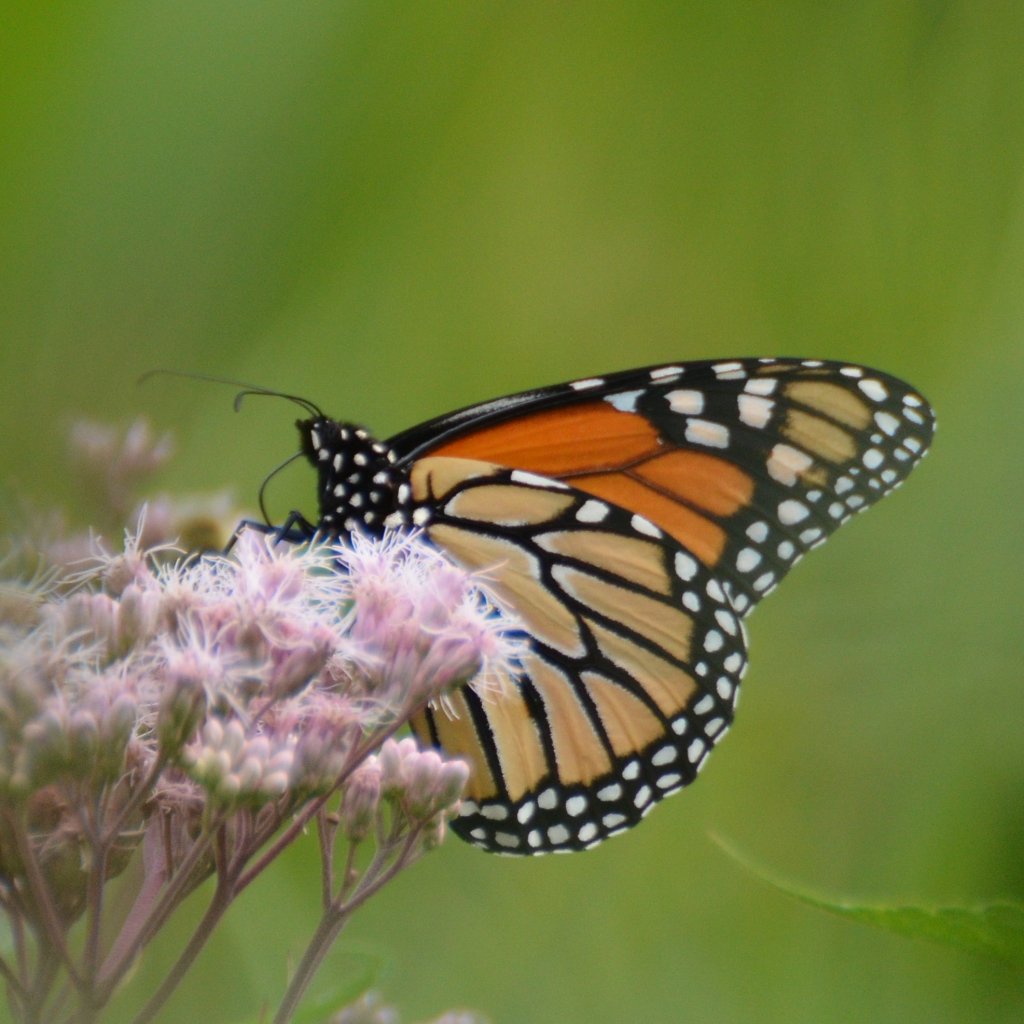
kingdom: Animalia
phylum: Arthropoda
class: Insecta
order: Lepidoptera
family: Nymphalidae
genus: Danaus
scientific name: Danaus plexippus
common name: Monarch
